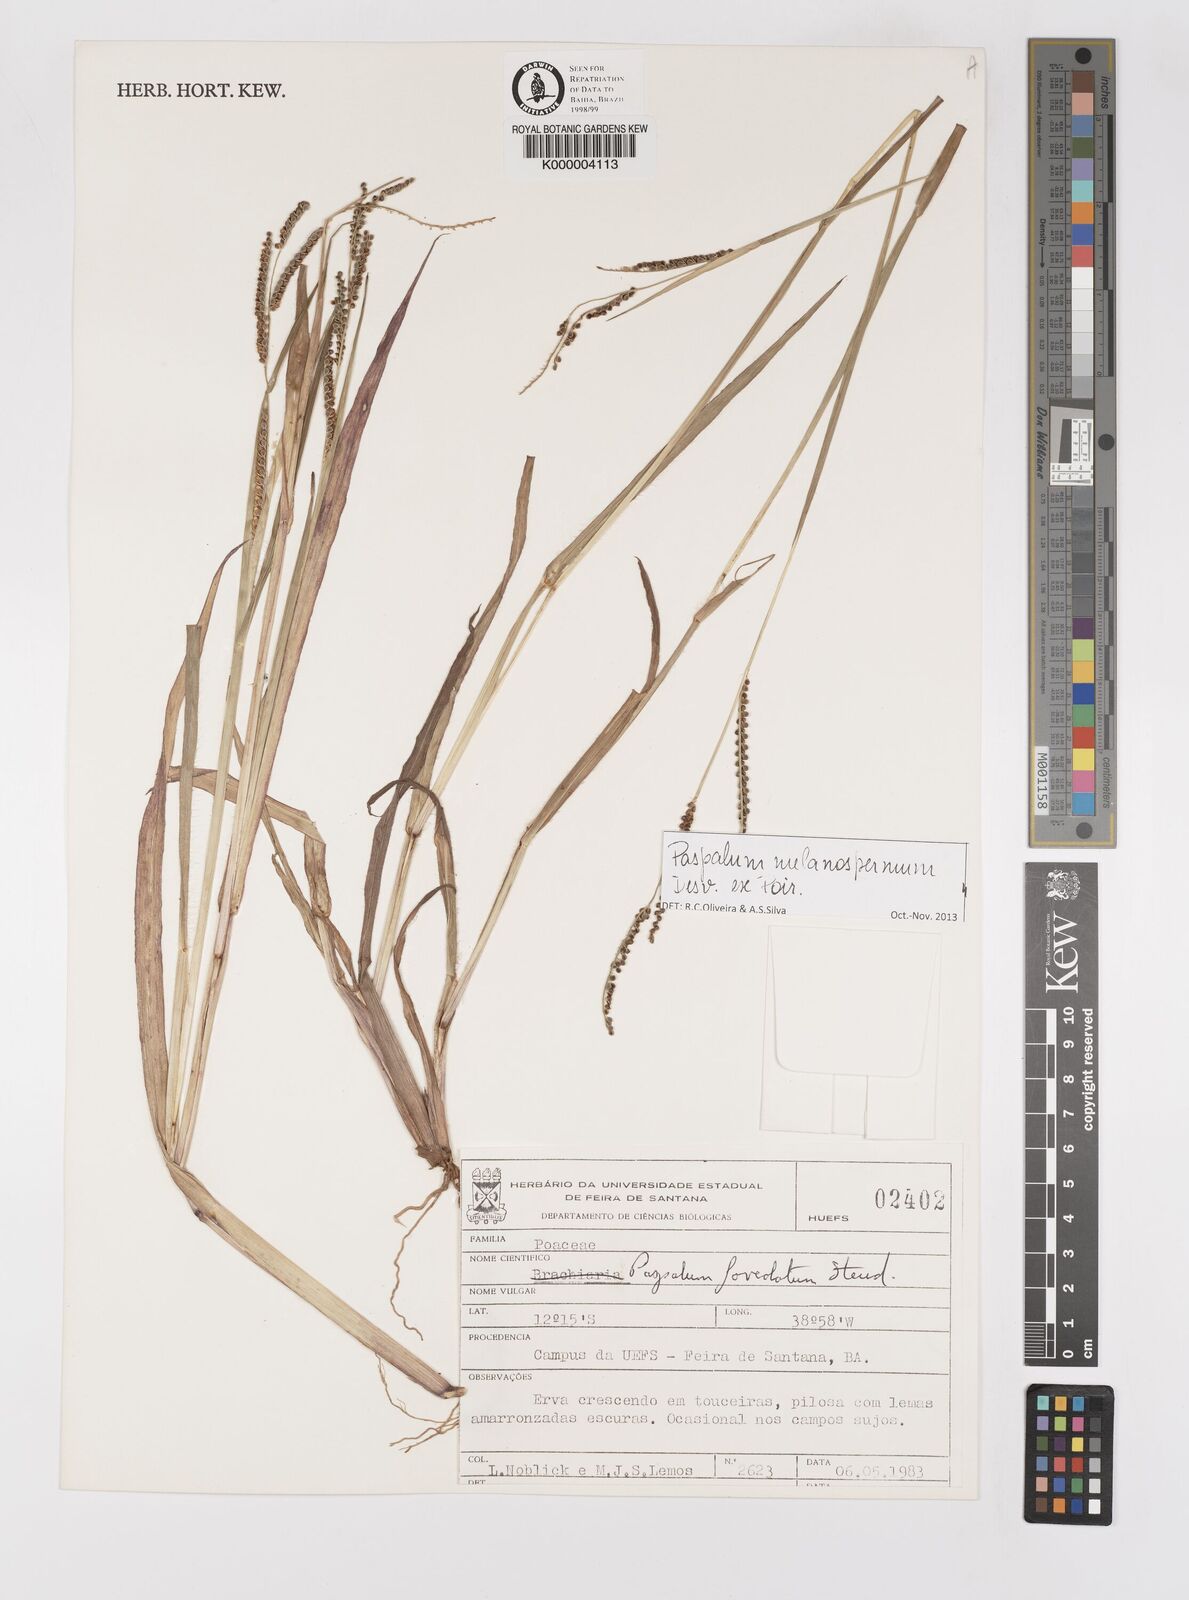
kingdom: Plantae
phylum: Tracheophyta
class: Liliopsida
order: Poales
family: Poaceae
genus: Paspalum
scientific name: Paspalum melanospermum
